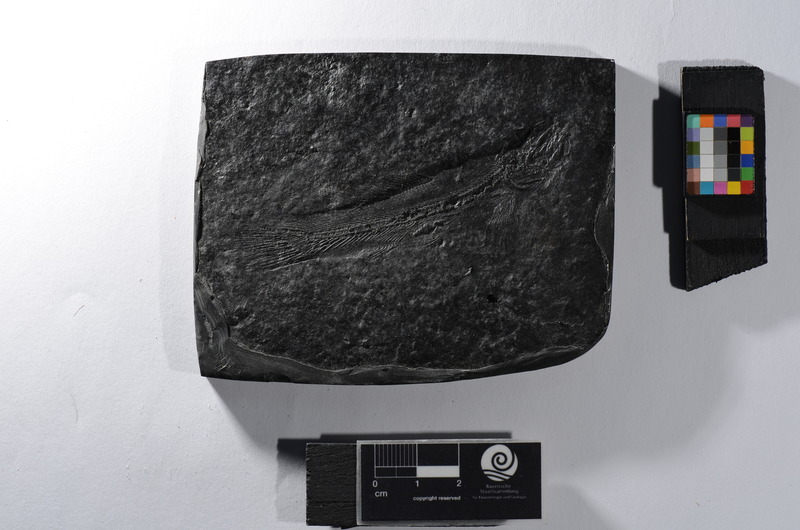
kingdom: Animalia
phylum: Chordata
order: Amiiformes
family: Amiidae
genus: Solnhofenamia
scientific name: Solnhofenamia elongata
